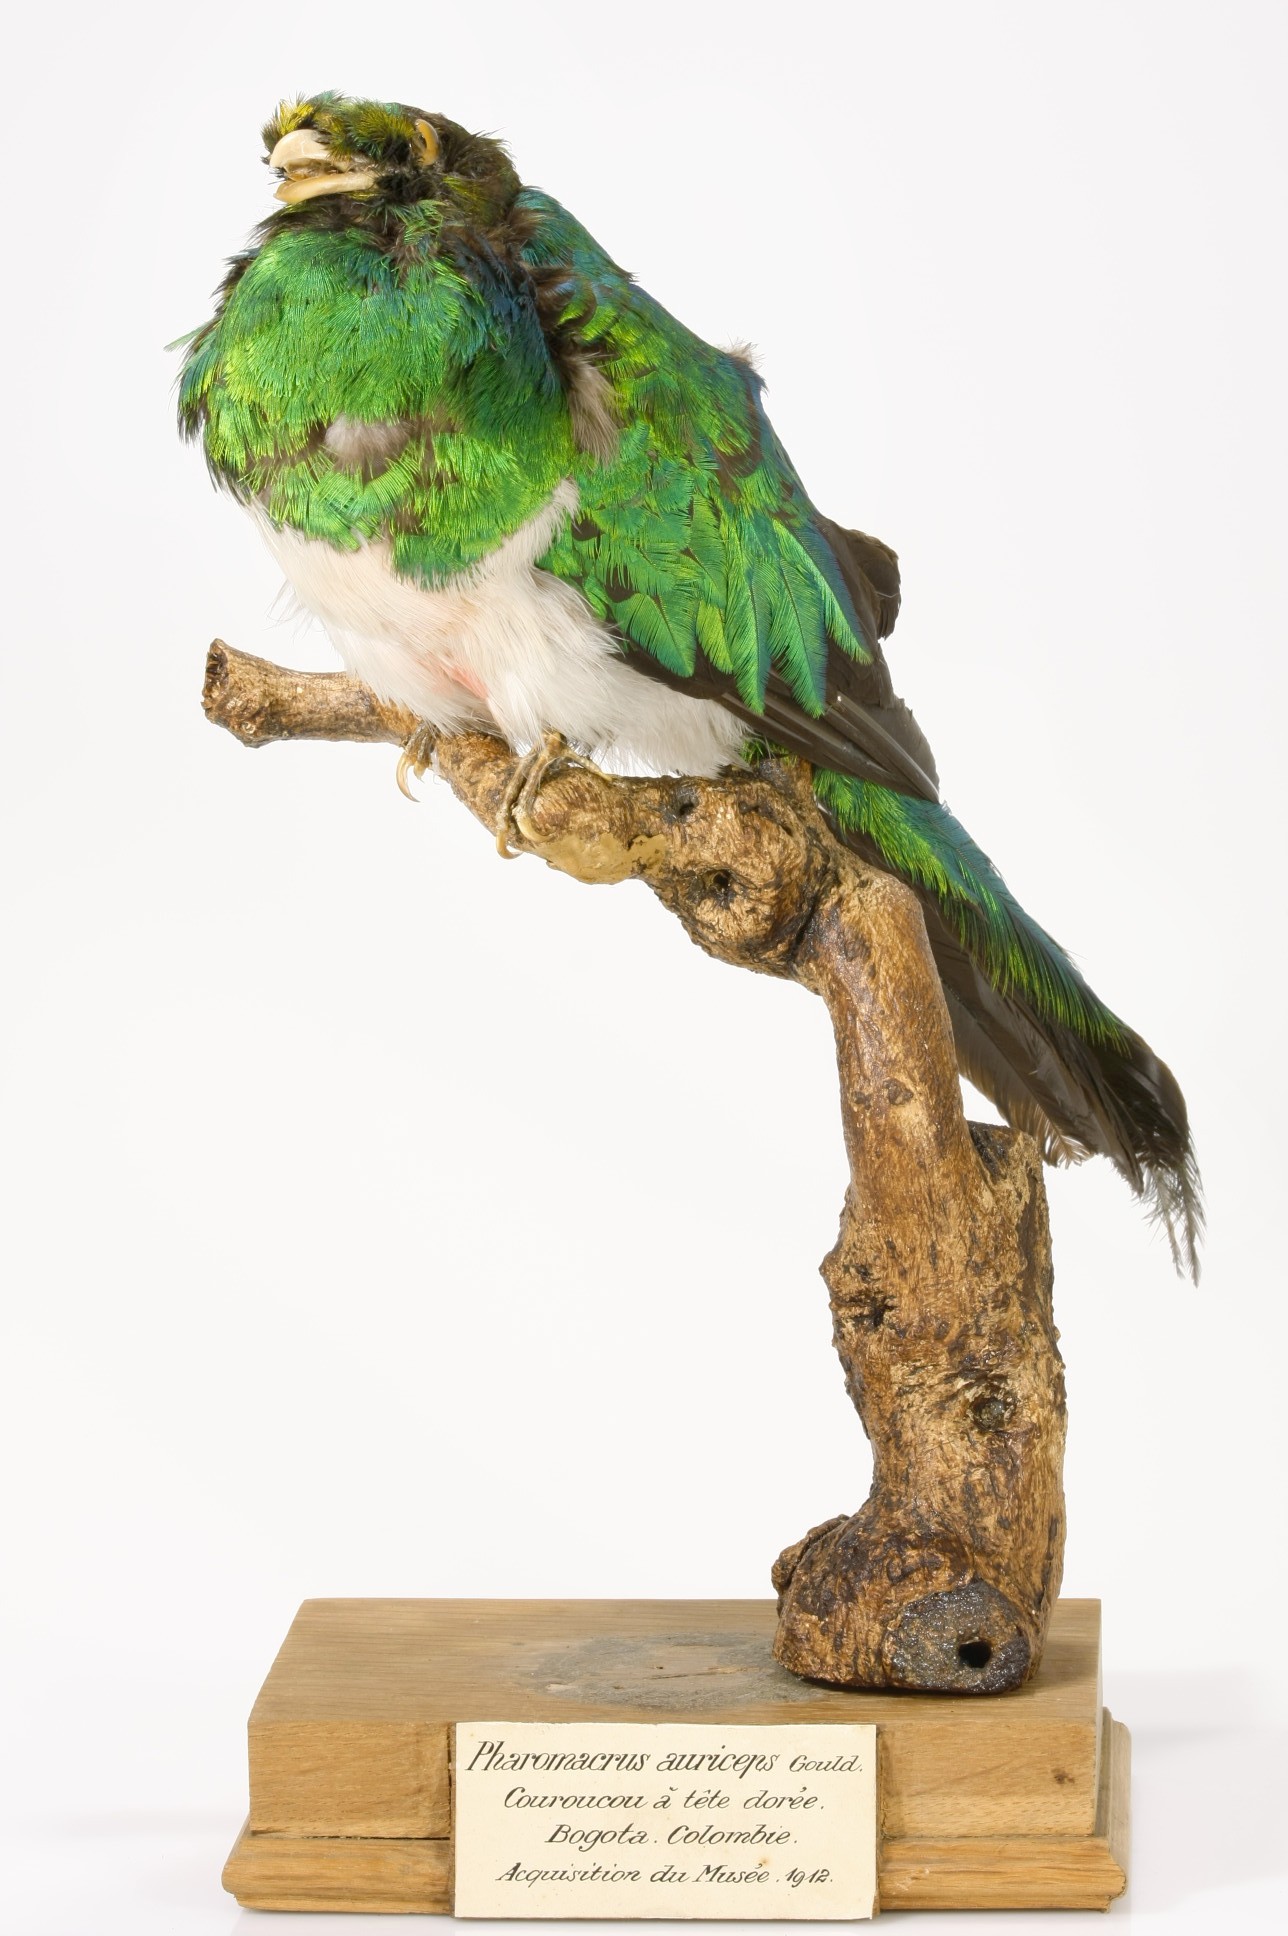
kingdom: Animalia
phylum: Chordata
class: Aves
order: Trogoniformes
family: Trogonidae
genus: Pharomachrus
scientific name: Pharomachrus auriceps
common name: Golden-headed quetzal
